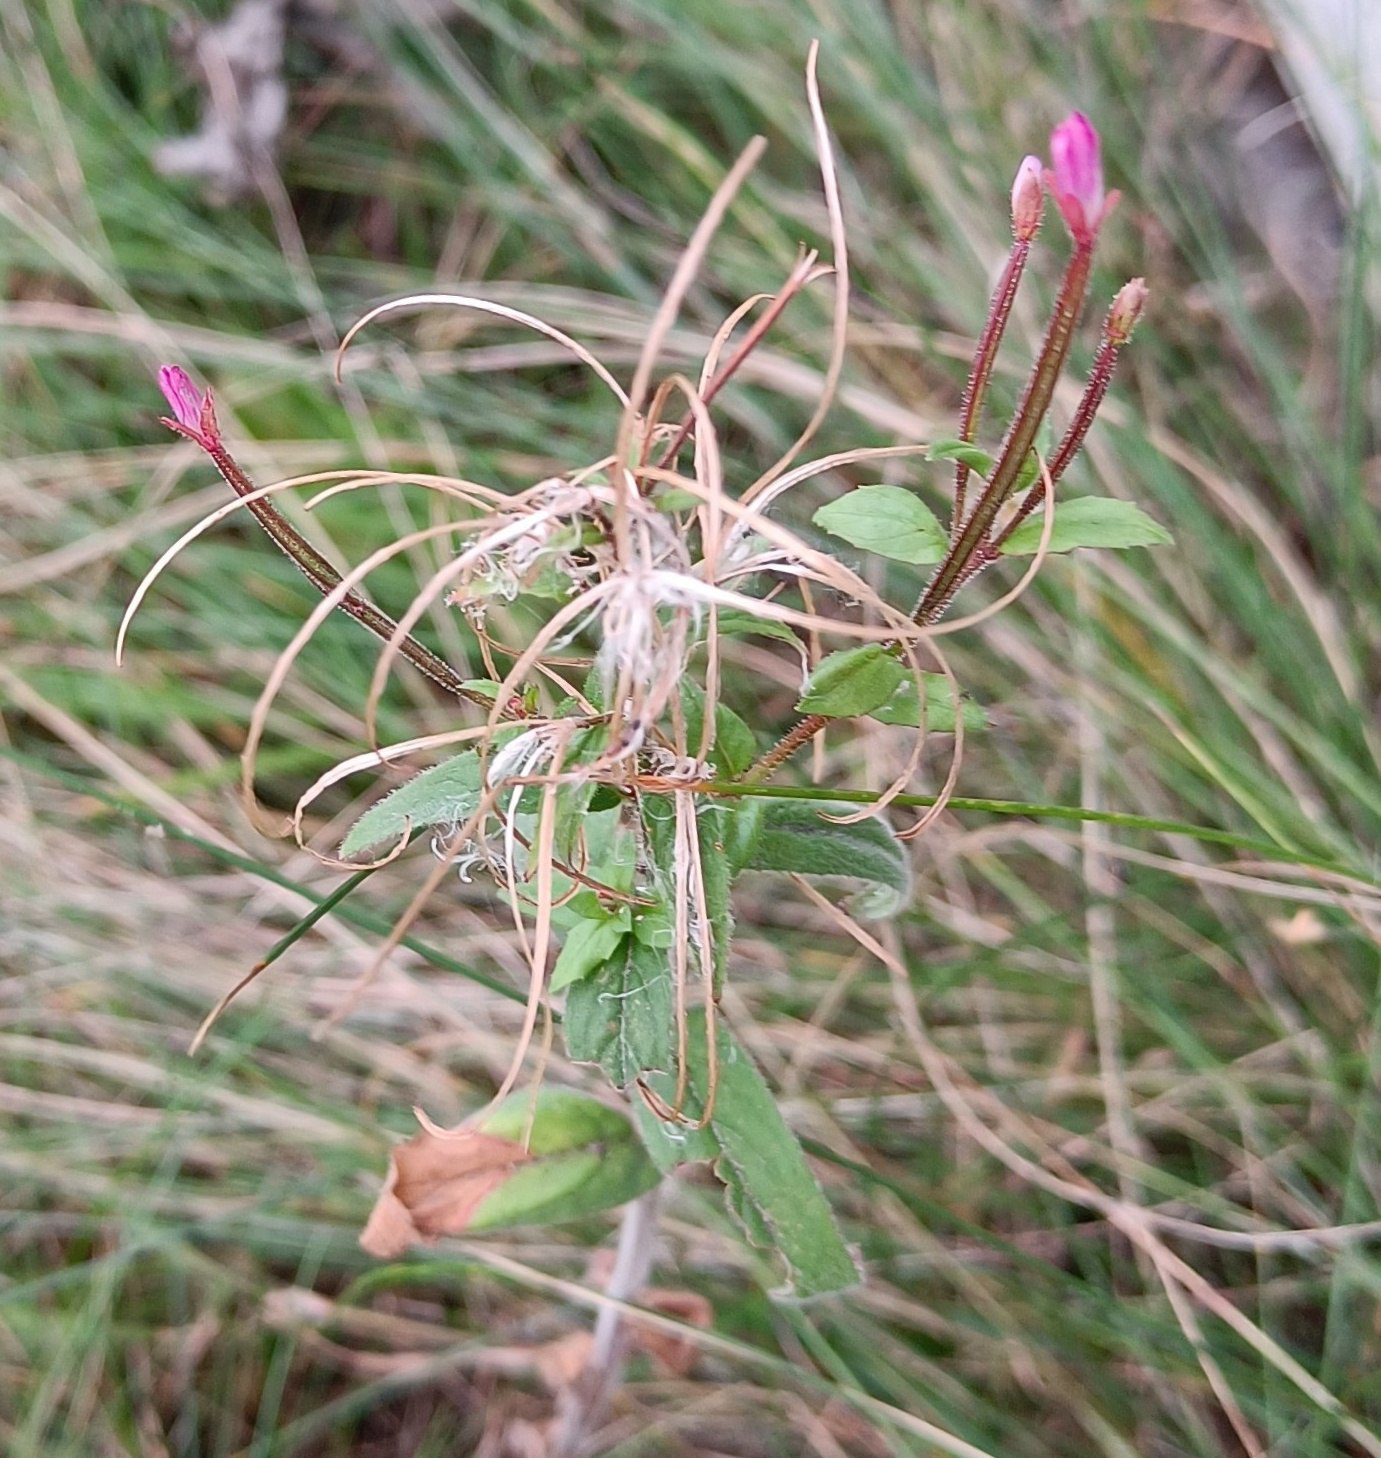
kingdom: Plantae
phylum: Tracheophyta
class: Magnoliopsida
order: Myrtales
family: Onagraceae
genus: Epilobium
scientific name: Epilobium parviflorum
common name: Dunet dueurt
